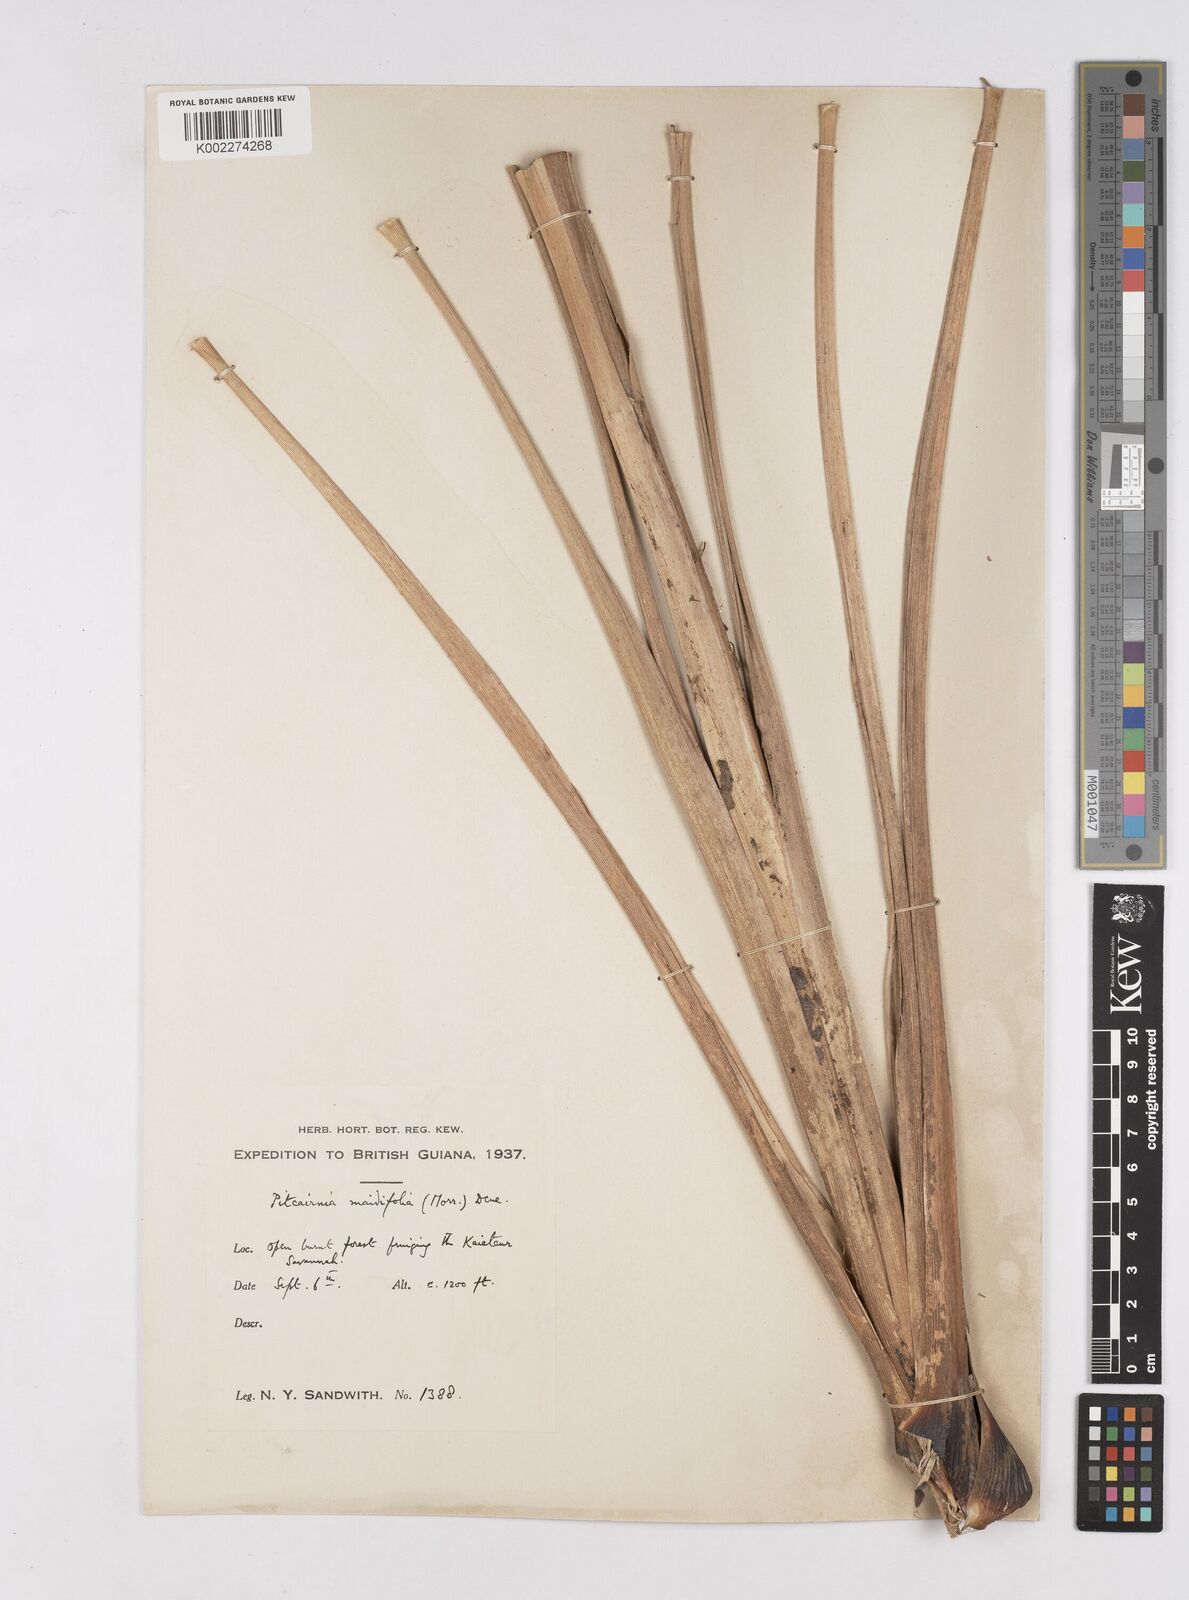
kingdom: Plantae
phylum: Tracheophyta
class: Liliopsida
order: Poales
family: Bromeliaceae
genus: Pitcairnia
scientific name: Pitcairnia maidifolia
